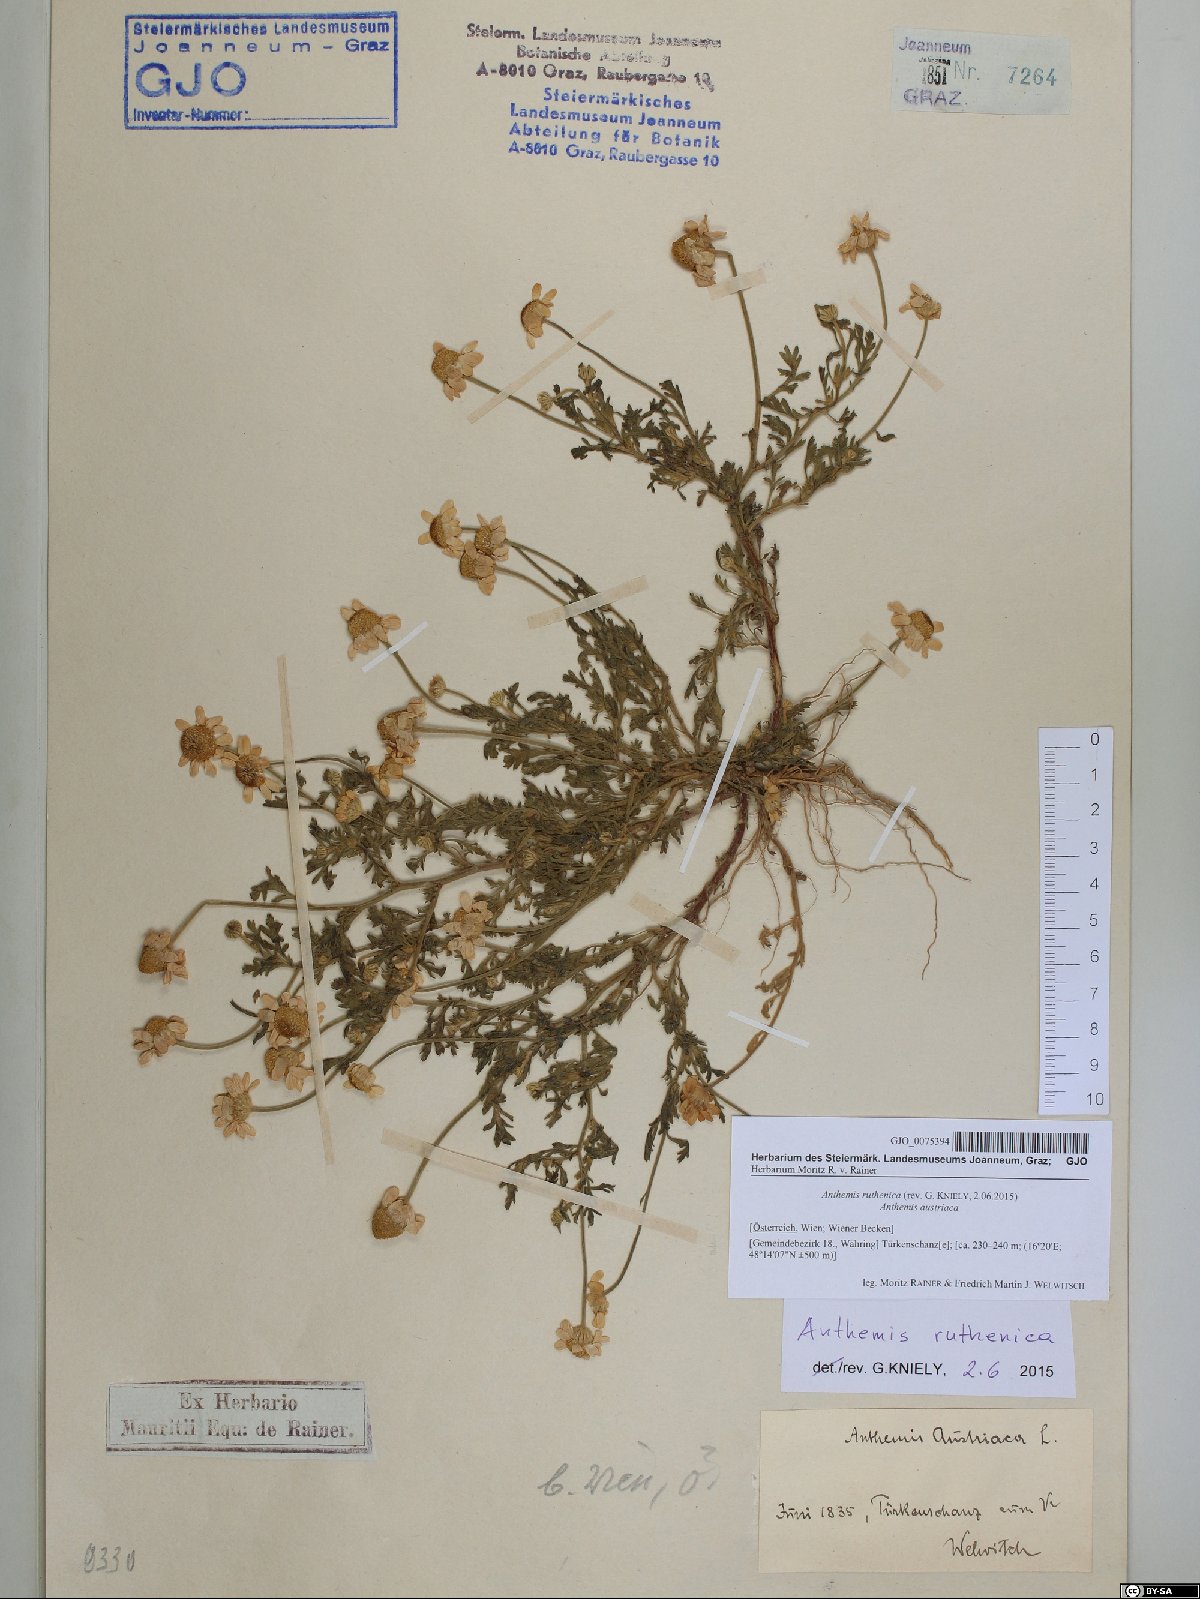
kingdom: Plantae
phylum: Tracheophyta
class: Magnoliopsida
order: Asterales
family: Asteraceae
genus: Anthemis
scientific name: Anthemis ruthenica
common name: Eastern chamomile
